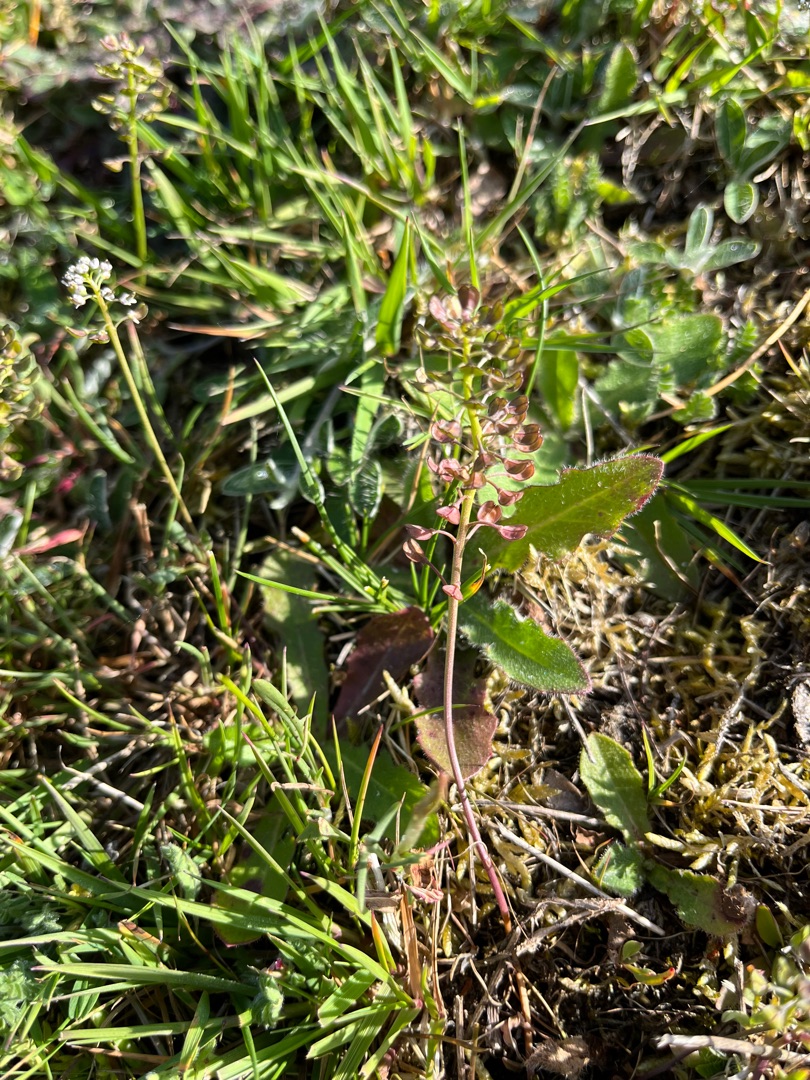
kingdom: Plantae
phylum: Tracheophyta
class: Magnoliopsida
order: Brassicales
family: Brassicaceae
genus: Teesdalia
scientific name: Teesdalia nudicaulis
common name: Flipkrave
